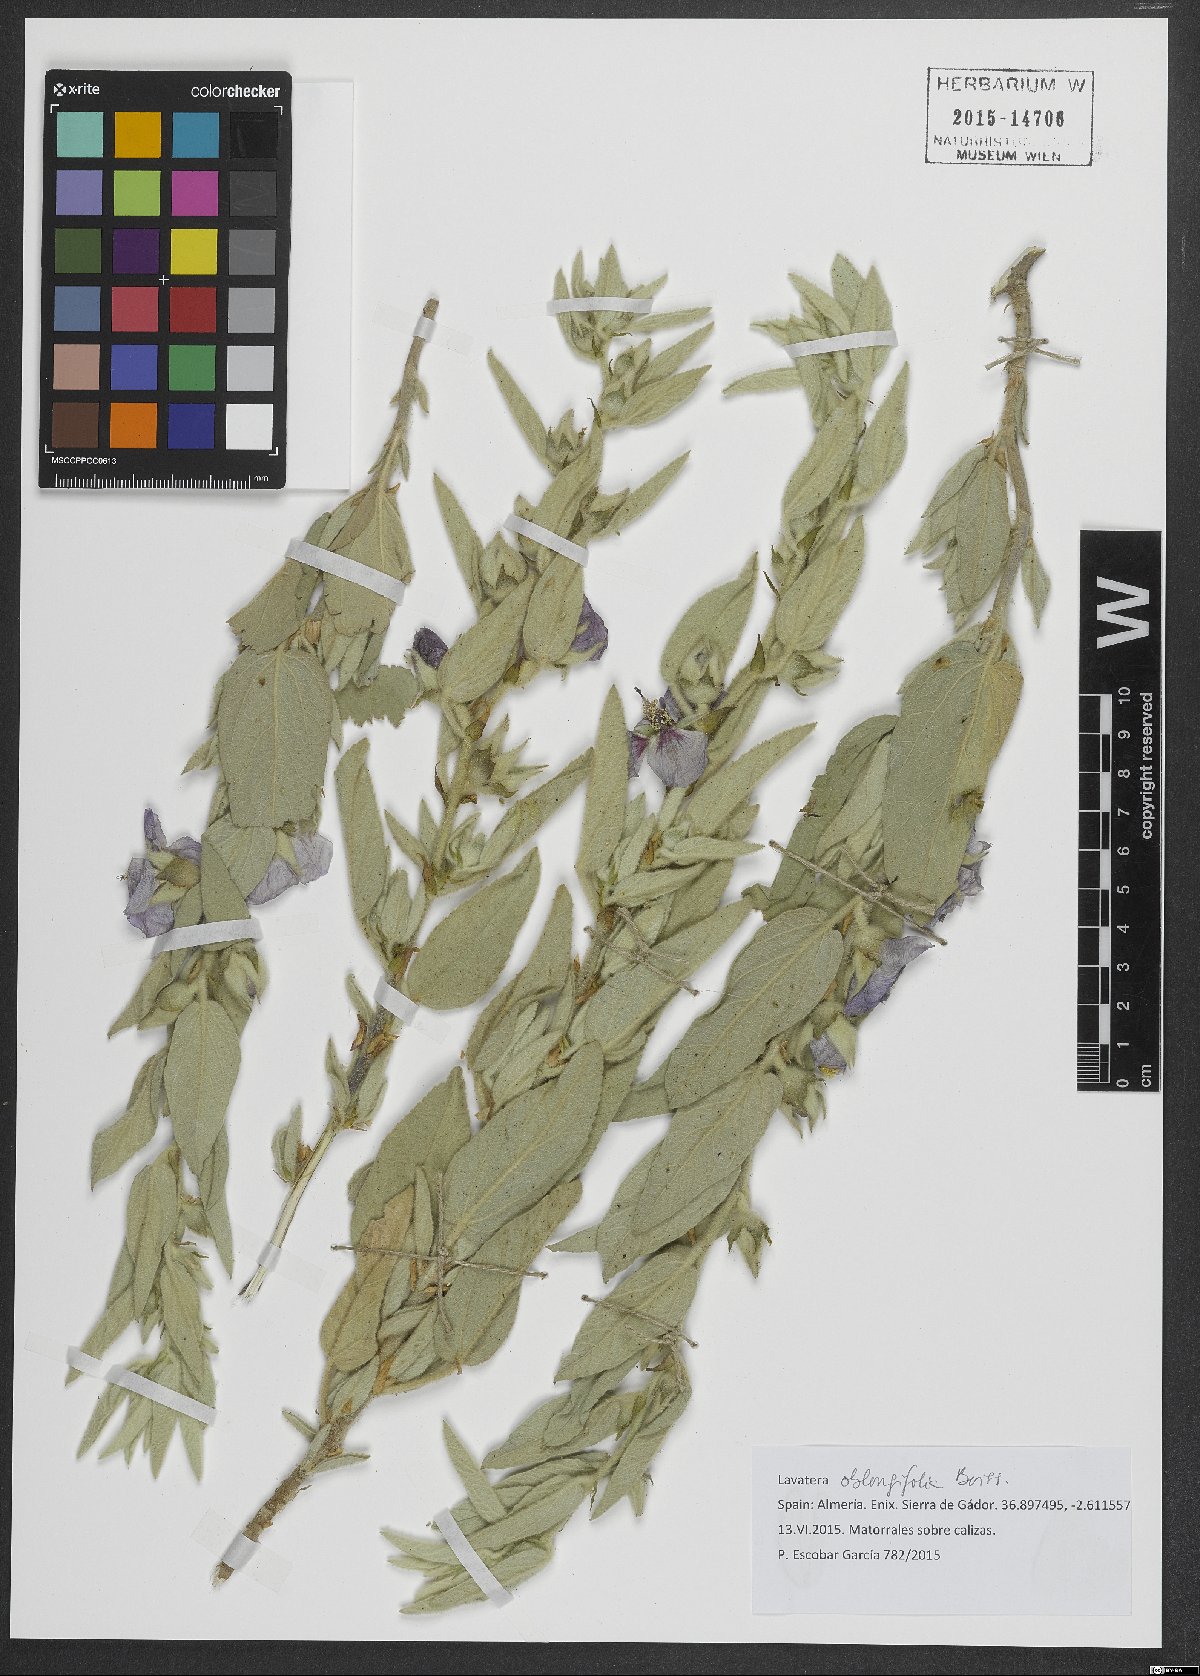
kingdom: Plantae
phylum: Tracheophyta
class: Magnoliopsida
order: Malvales
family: Malvaceae
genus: Malva
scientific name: Malva oblongifolia
